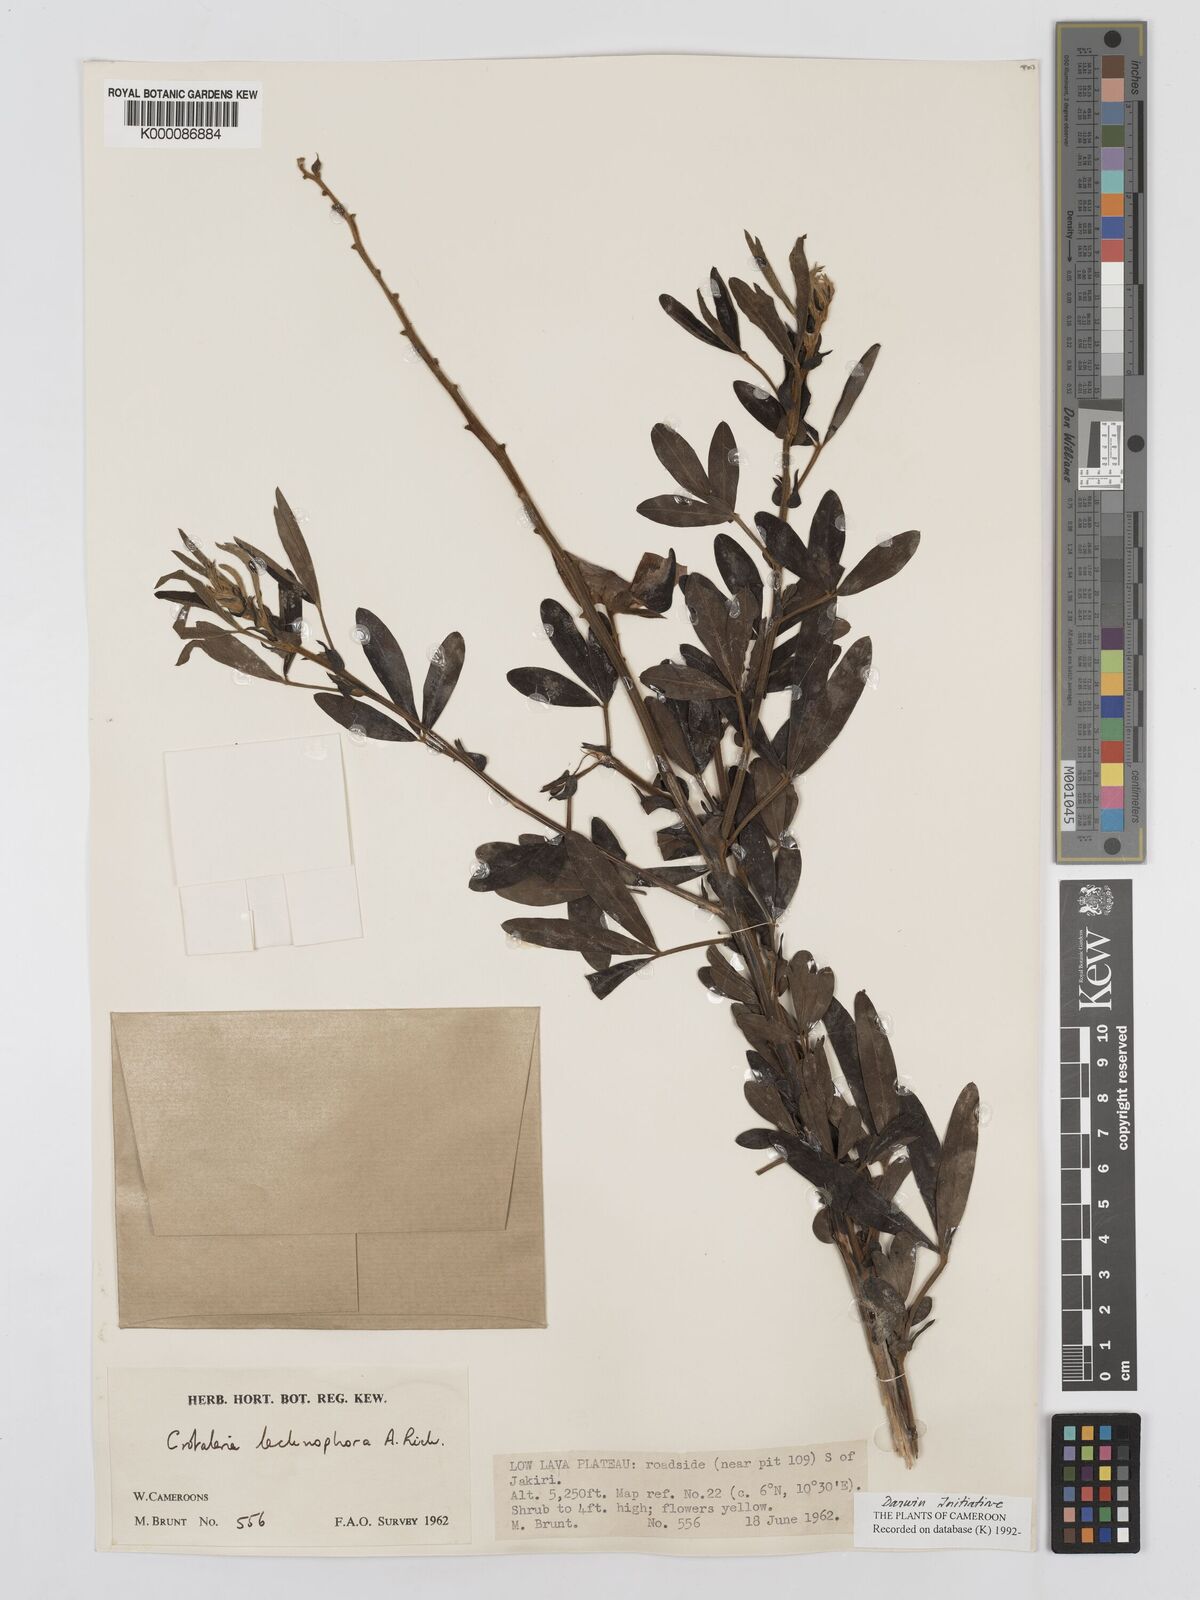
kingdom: Plantae
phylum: Tracheophyta
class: Magnoliopsida
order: Fabales
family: Fabaceae
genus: Crotalaria
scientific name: Crotalaria lachnophora
